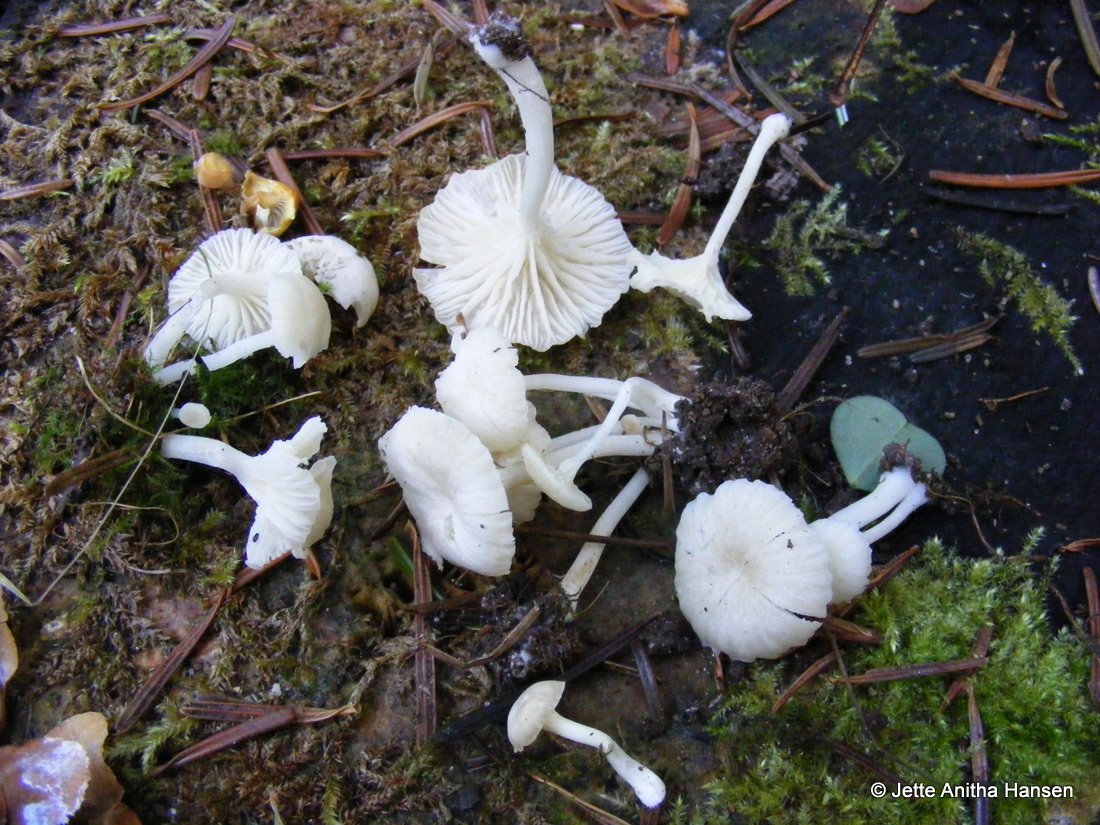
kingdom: Fungi
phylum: Basidiomycota
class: Agaricomycetes
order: Agaricales
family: Hygrophoraceae
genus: Chrysomphalina
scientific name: Chrysomphalina grossula
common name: stød-gyldenblad
